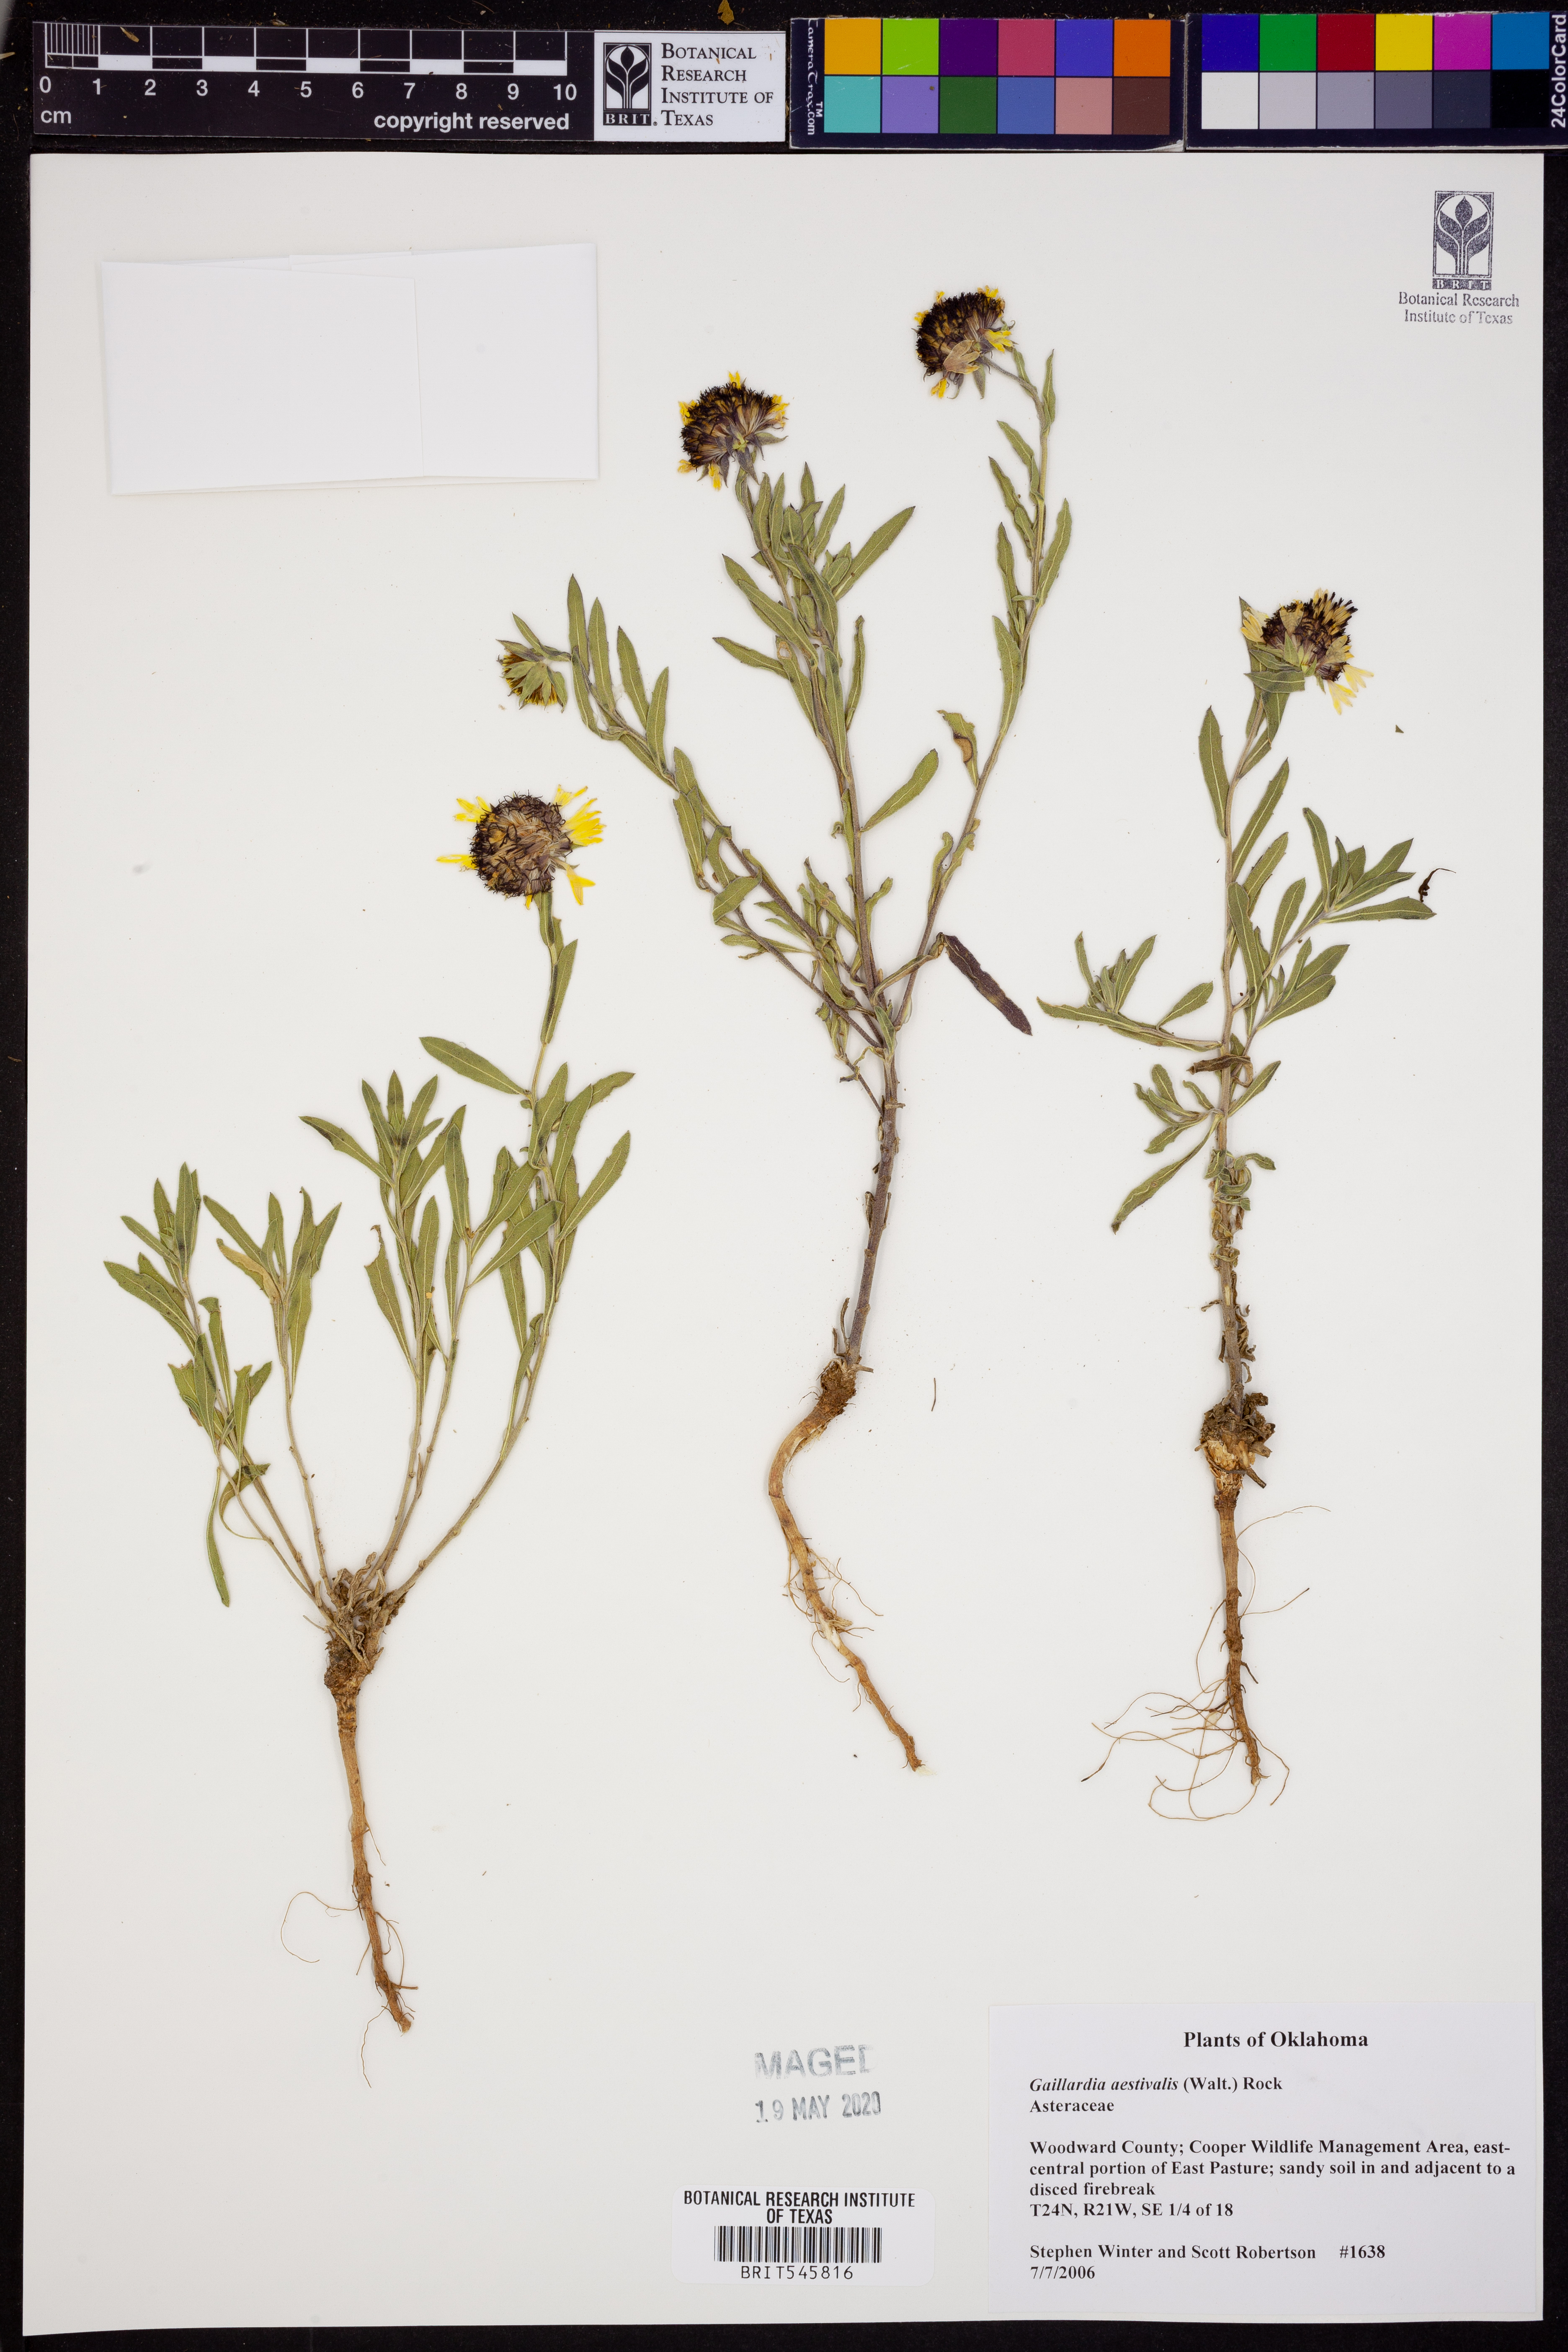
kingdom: Plantae
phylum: Tracheophyta
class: Magnoliopsida
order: Asterales
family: Asteraceae
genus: Gaillardia
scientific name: Gaillardia aestivalis
